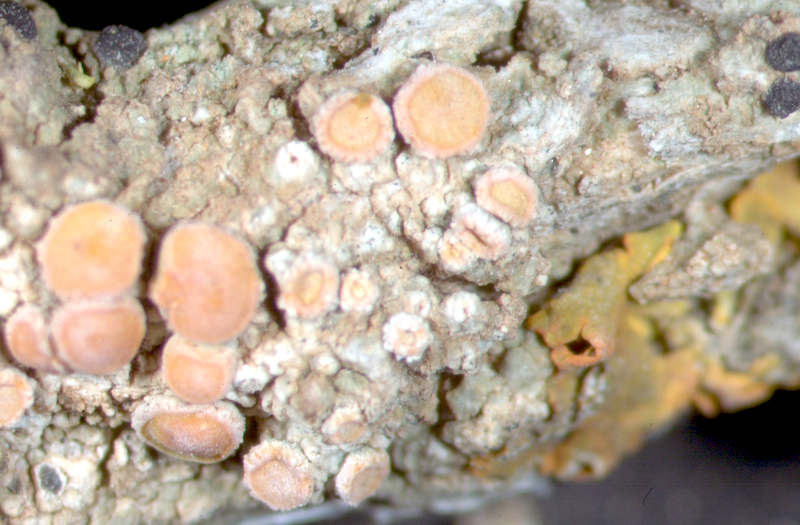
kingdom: Fungi
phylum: Ascomycota
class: Lecanoromycetes
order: Teloschistales
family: Teloschistaceae
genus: Dufourea
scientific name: Dufourea turbinata
